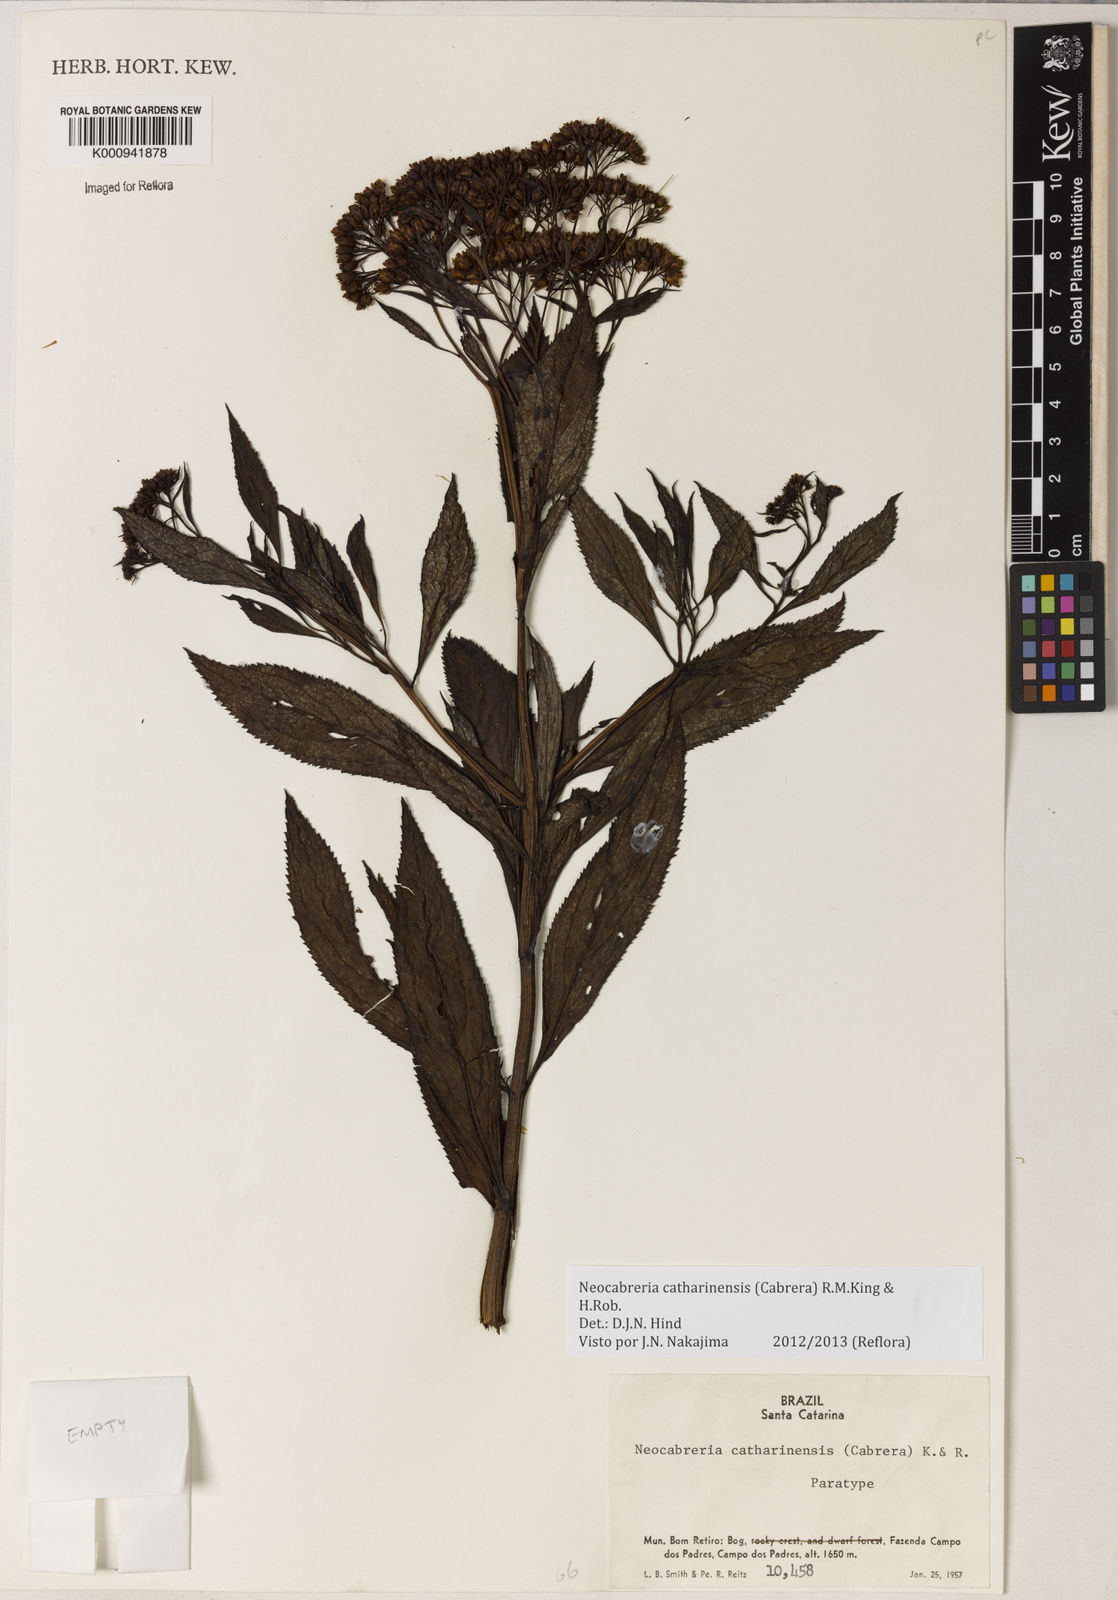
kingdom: Plantae
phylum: Tracheophyta
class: Magnoliopsida
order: Asterales
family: Asteraceae
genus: Neocabreria
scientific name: Neocabreria catharinensis
